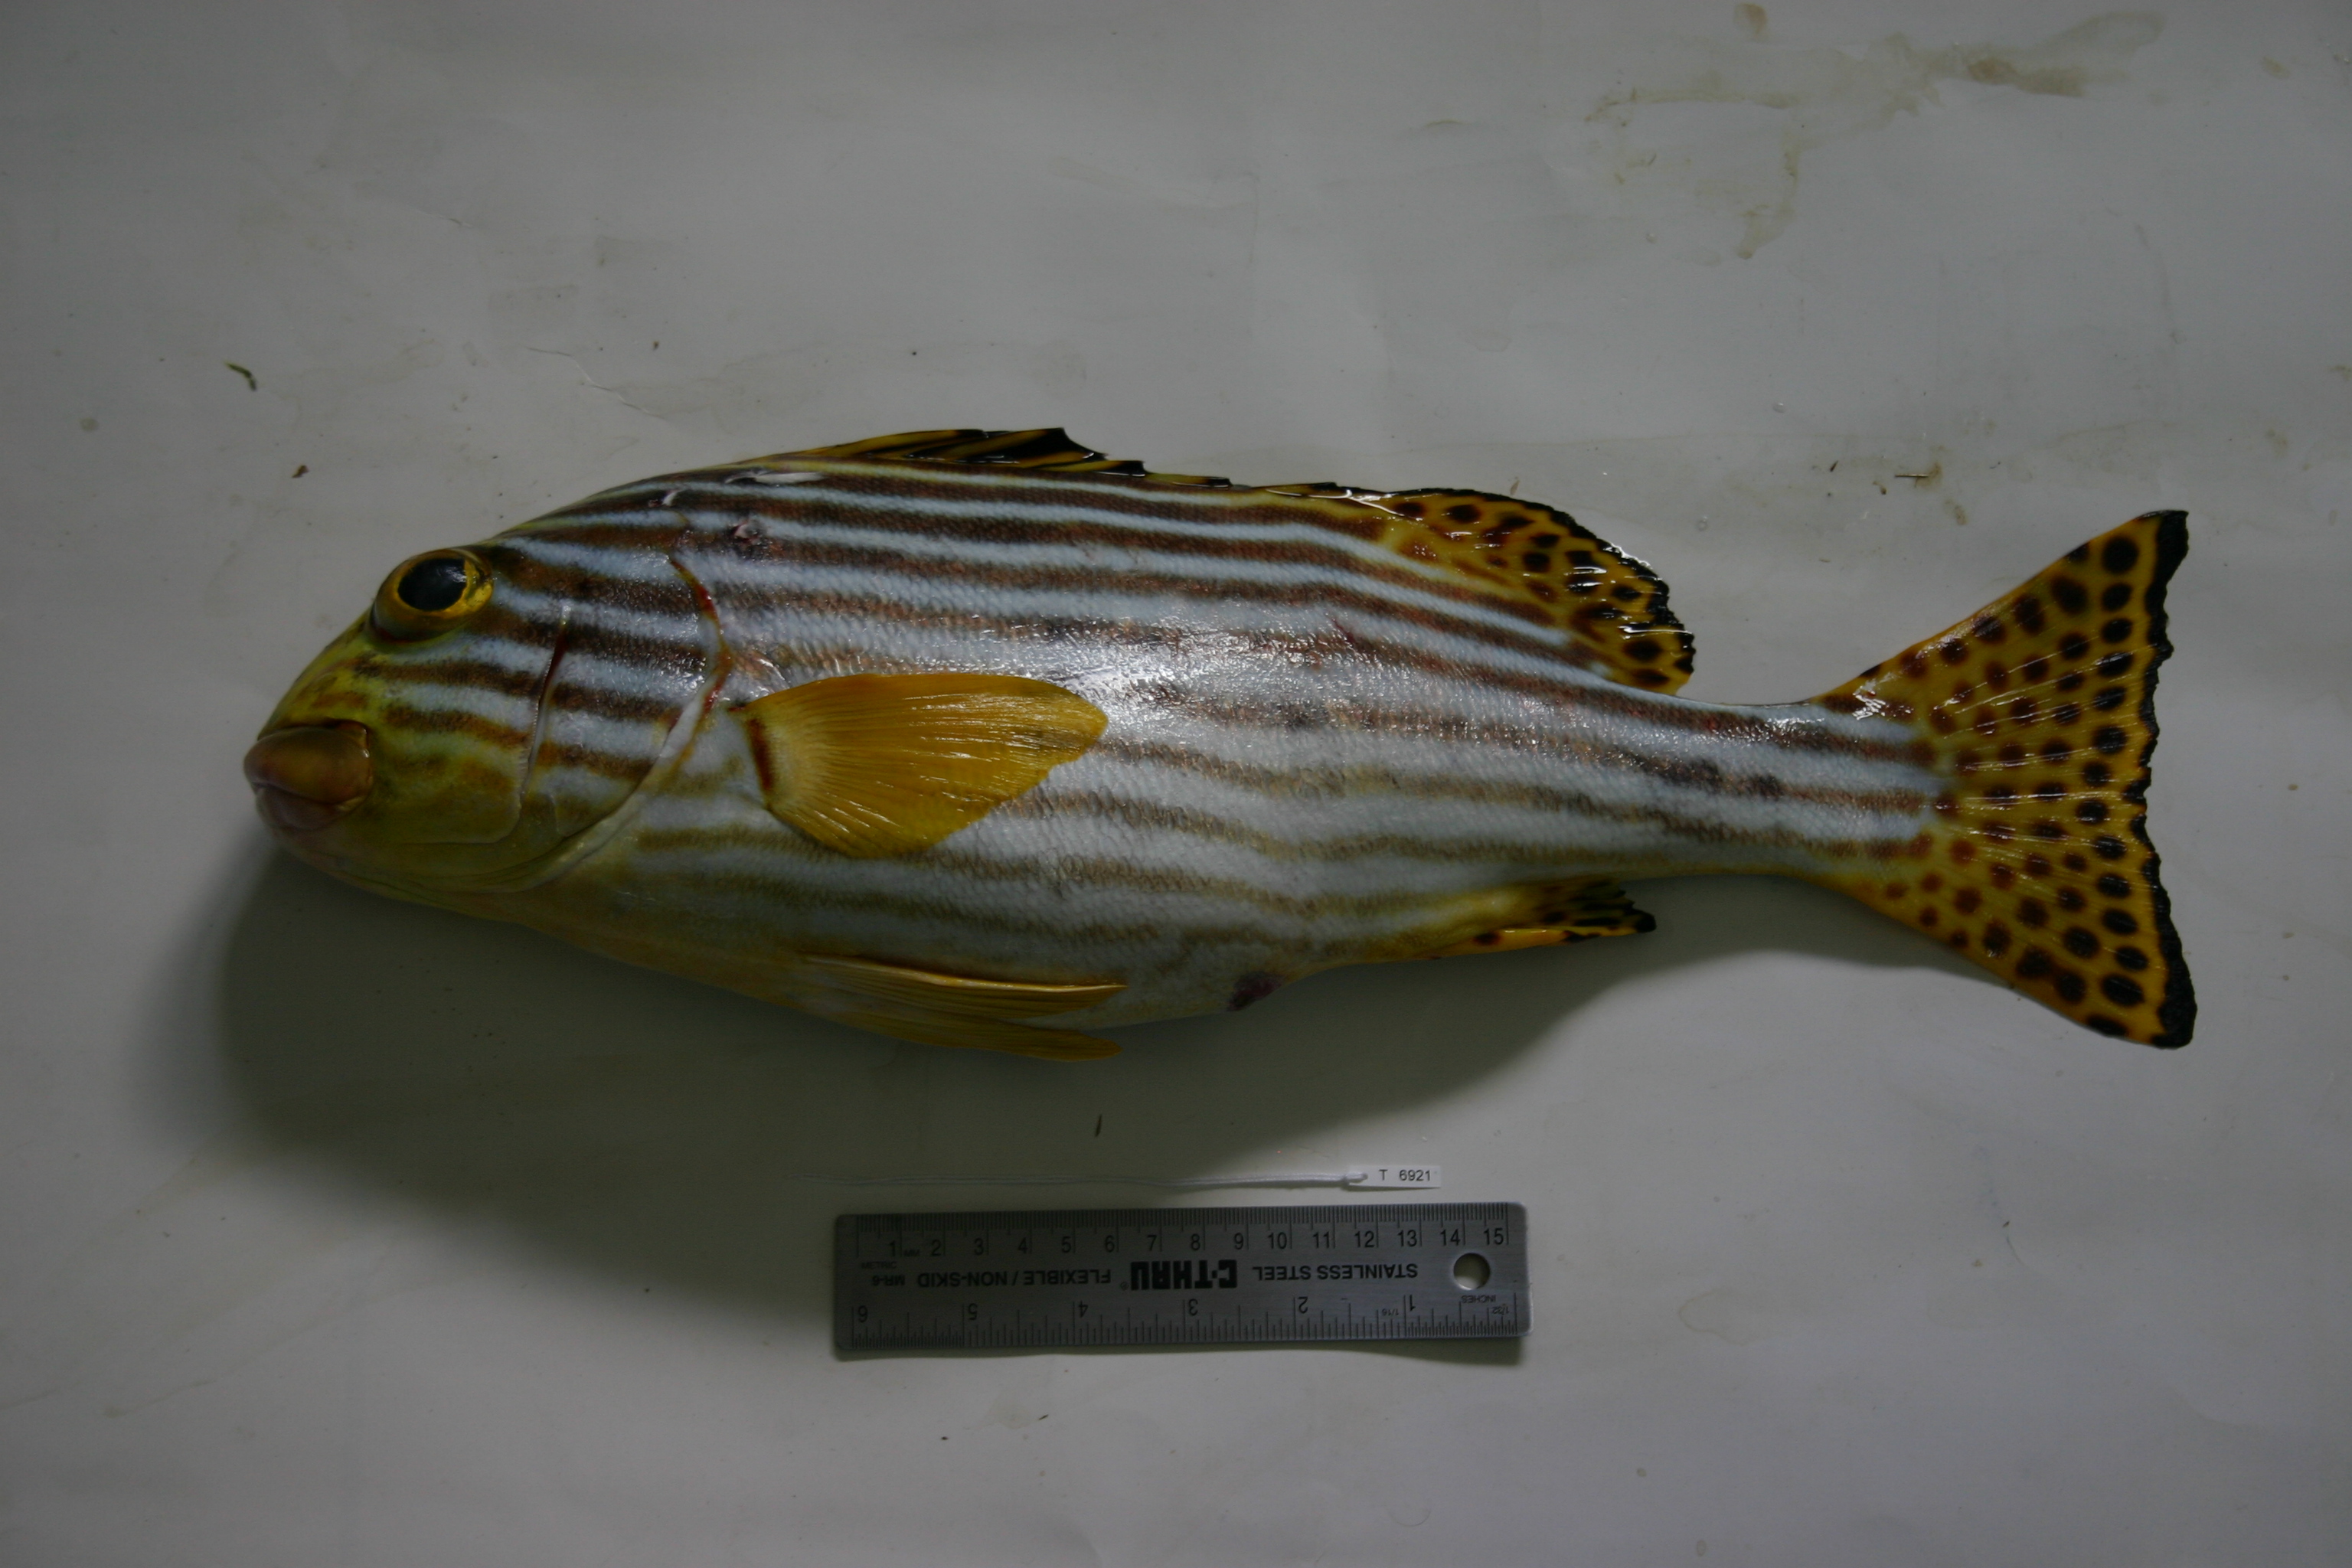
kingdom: Animalia
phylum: Chordata
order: Perciformes
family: Haemulidae
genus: Plectorhinchus
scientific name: Plectorhinchus vittatus
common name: Oriental sweetlips
